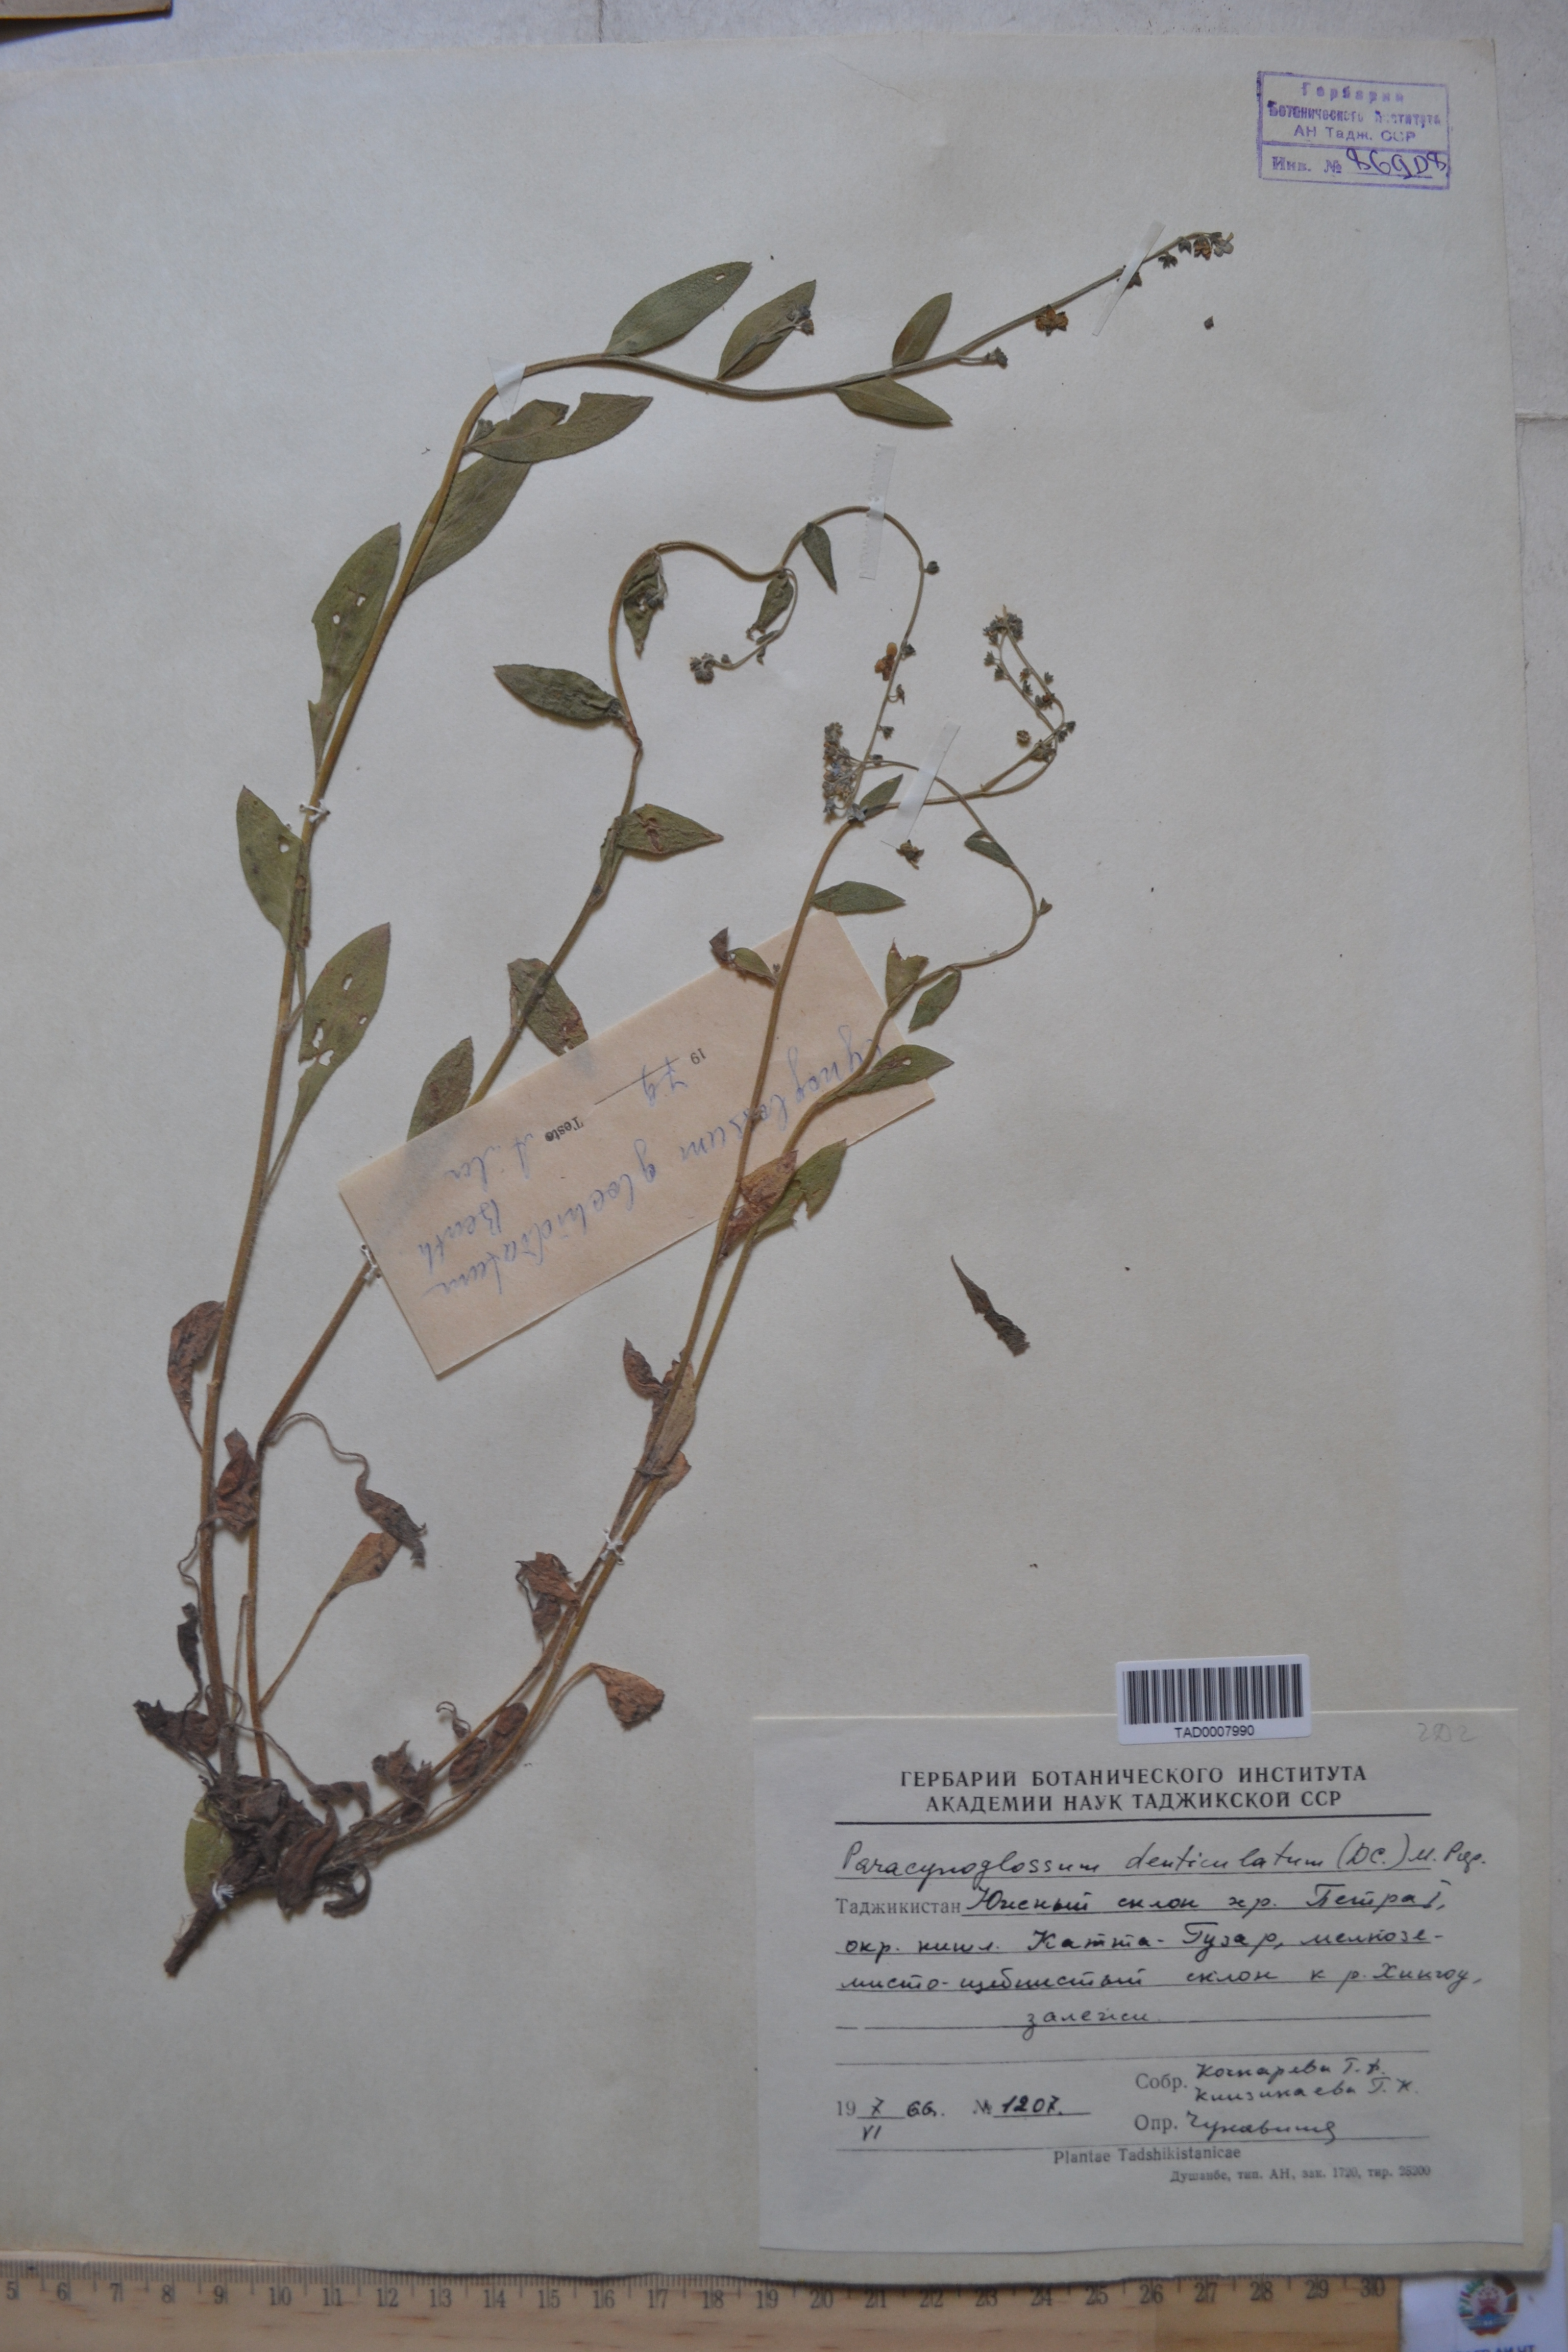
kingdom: Plantae
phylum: Tracheophyta
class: Magnoliopsida
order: Boraginales
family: Boraginaceae
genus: Paracynoglossum
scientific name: Paracynoglossum glochidiatum
